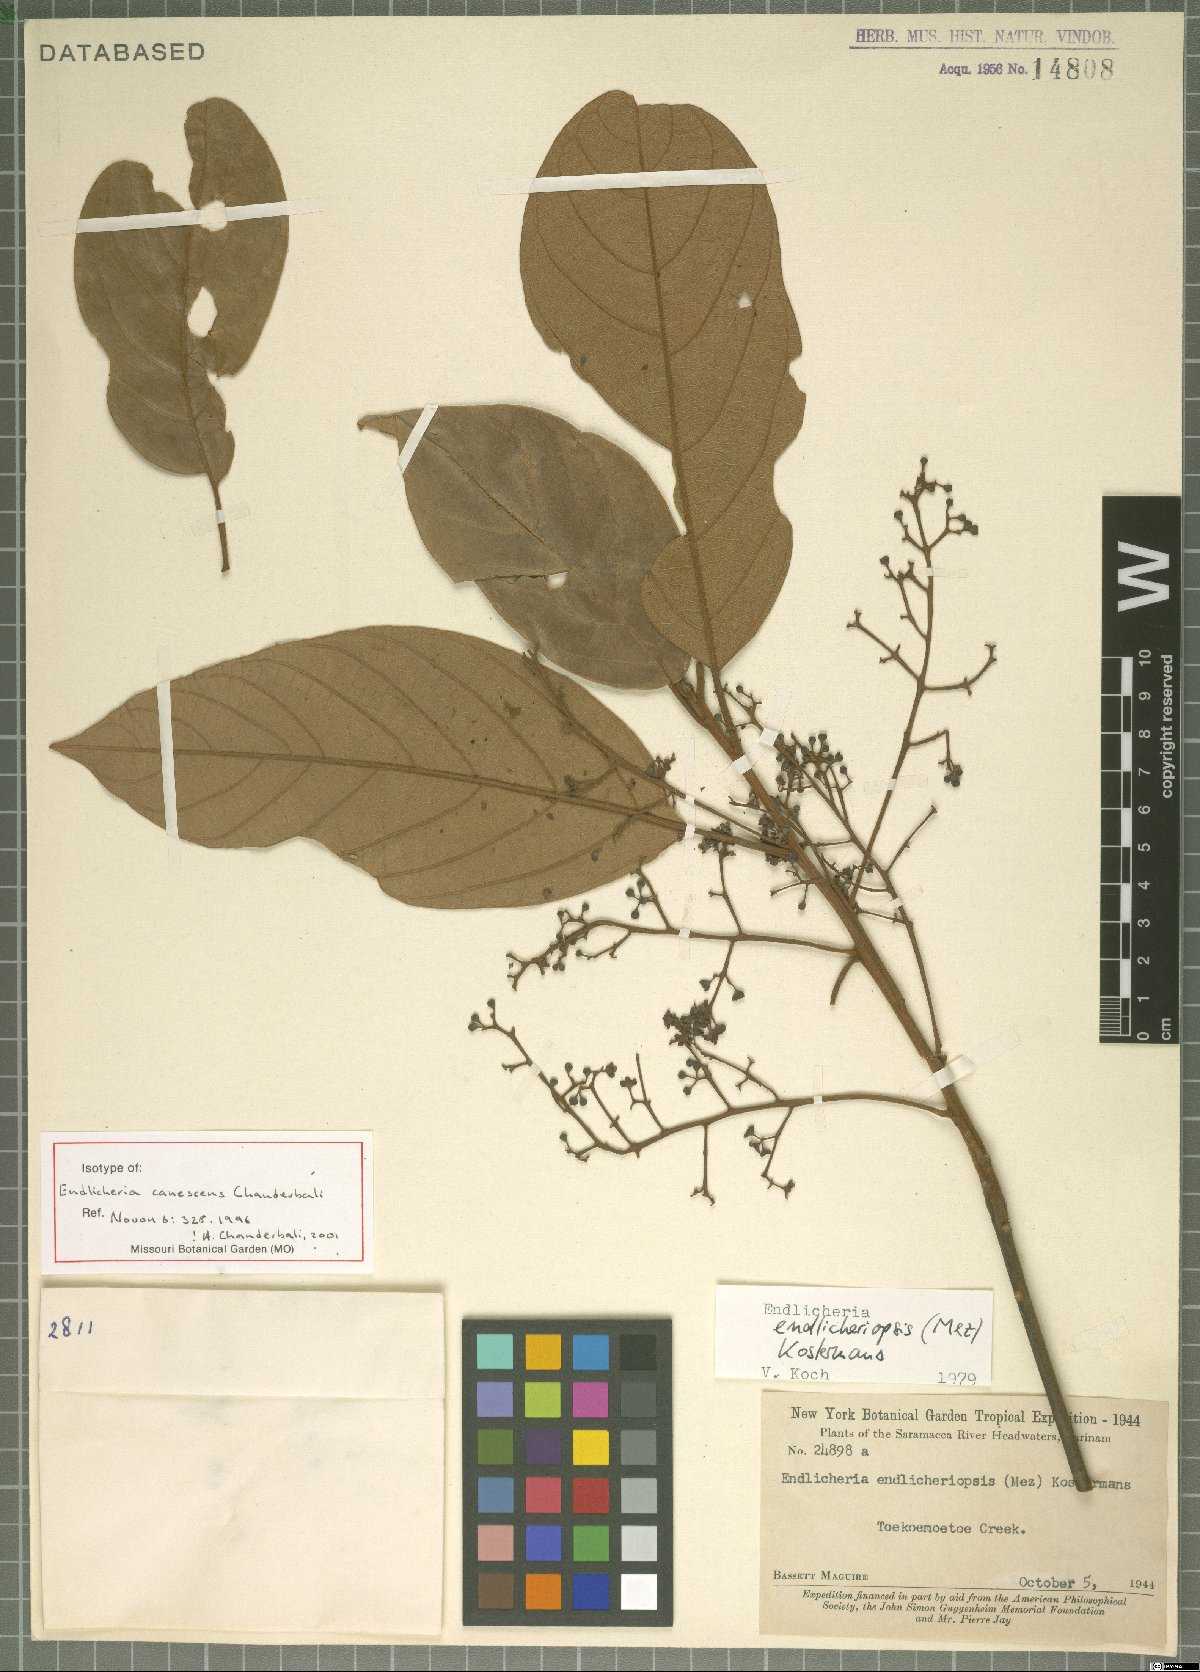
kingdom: Plantae
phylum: Tracheophyta
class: Magnoliopsida
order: Laurales
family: Lauraceae
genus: Endlicheria
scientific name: Endlicheria canescens
